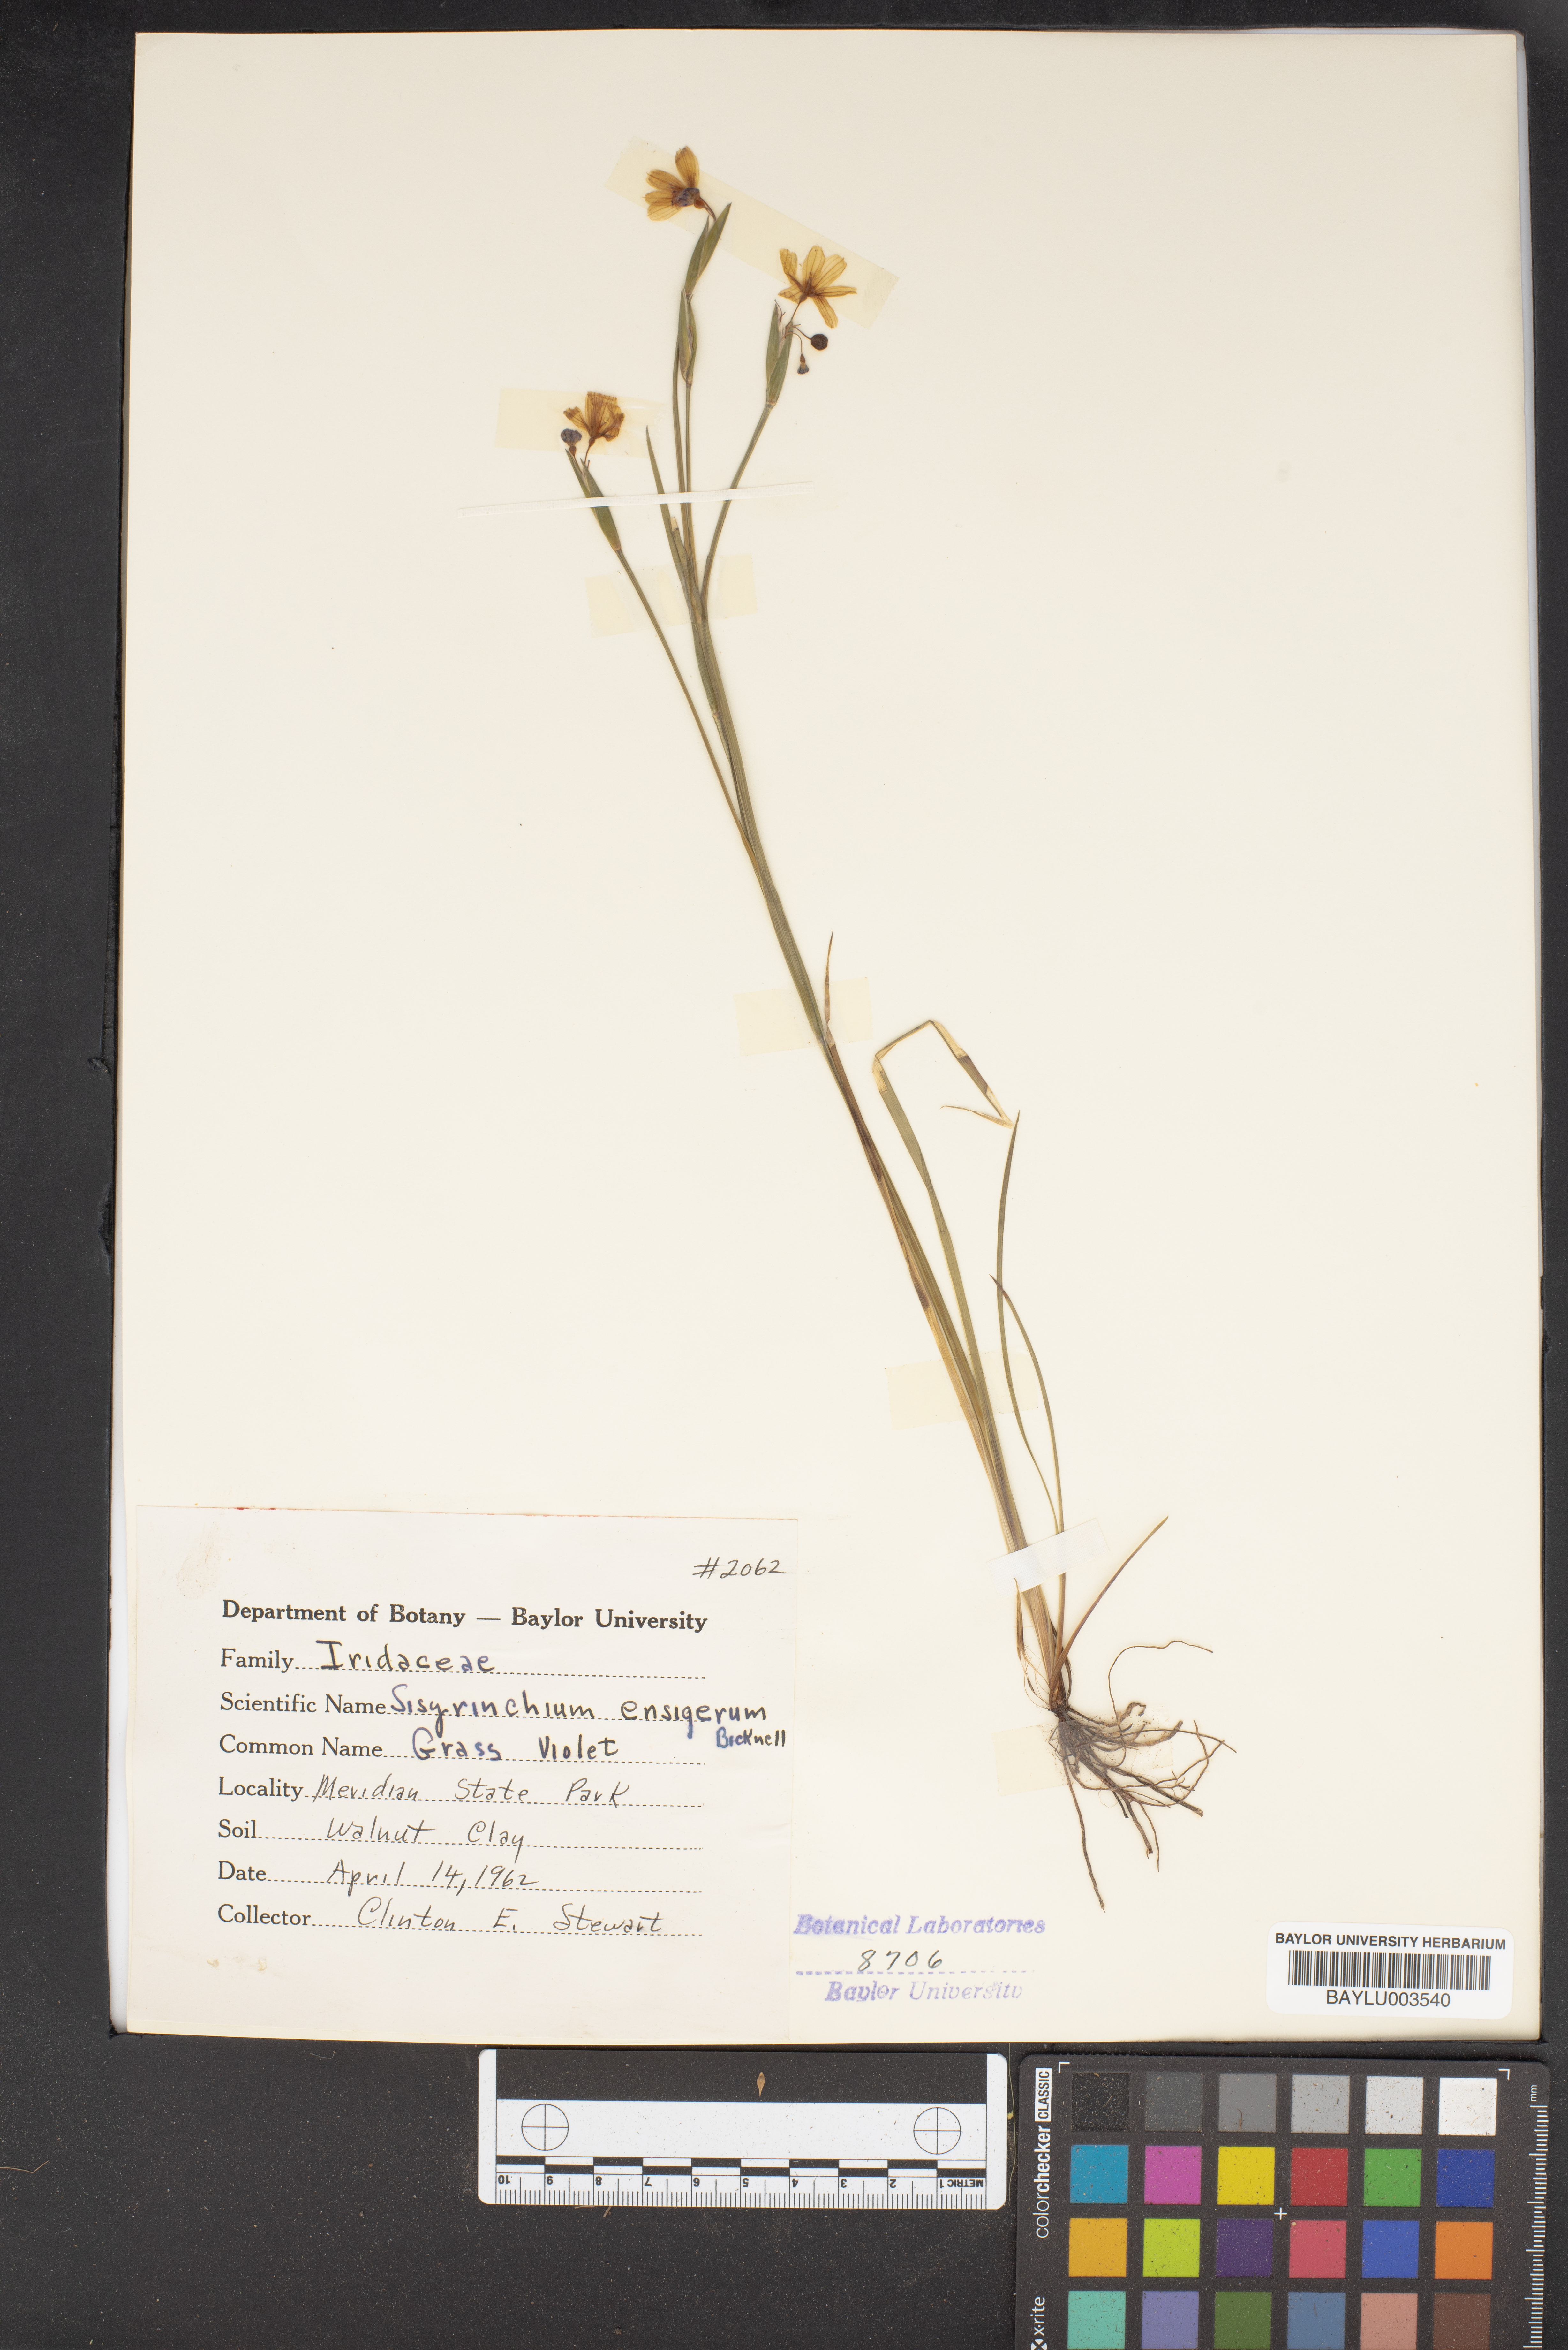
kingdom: Plantae
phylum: Tracheophyta
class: Liliopsida
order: Asparagales
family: Iridaceae
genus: Sisyrinchium
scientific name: Sisyrinchium ensigerum
